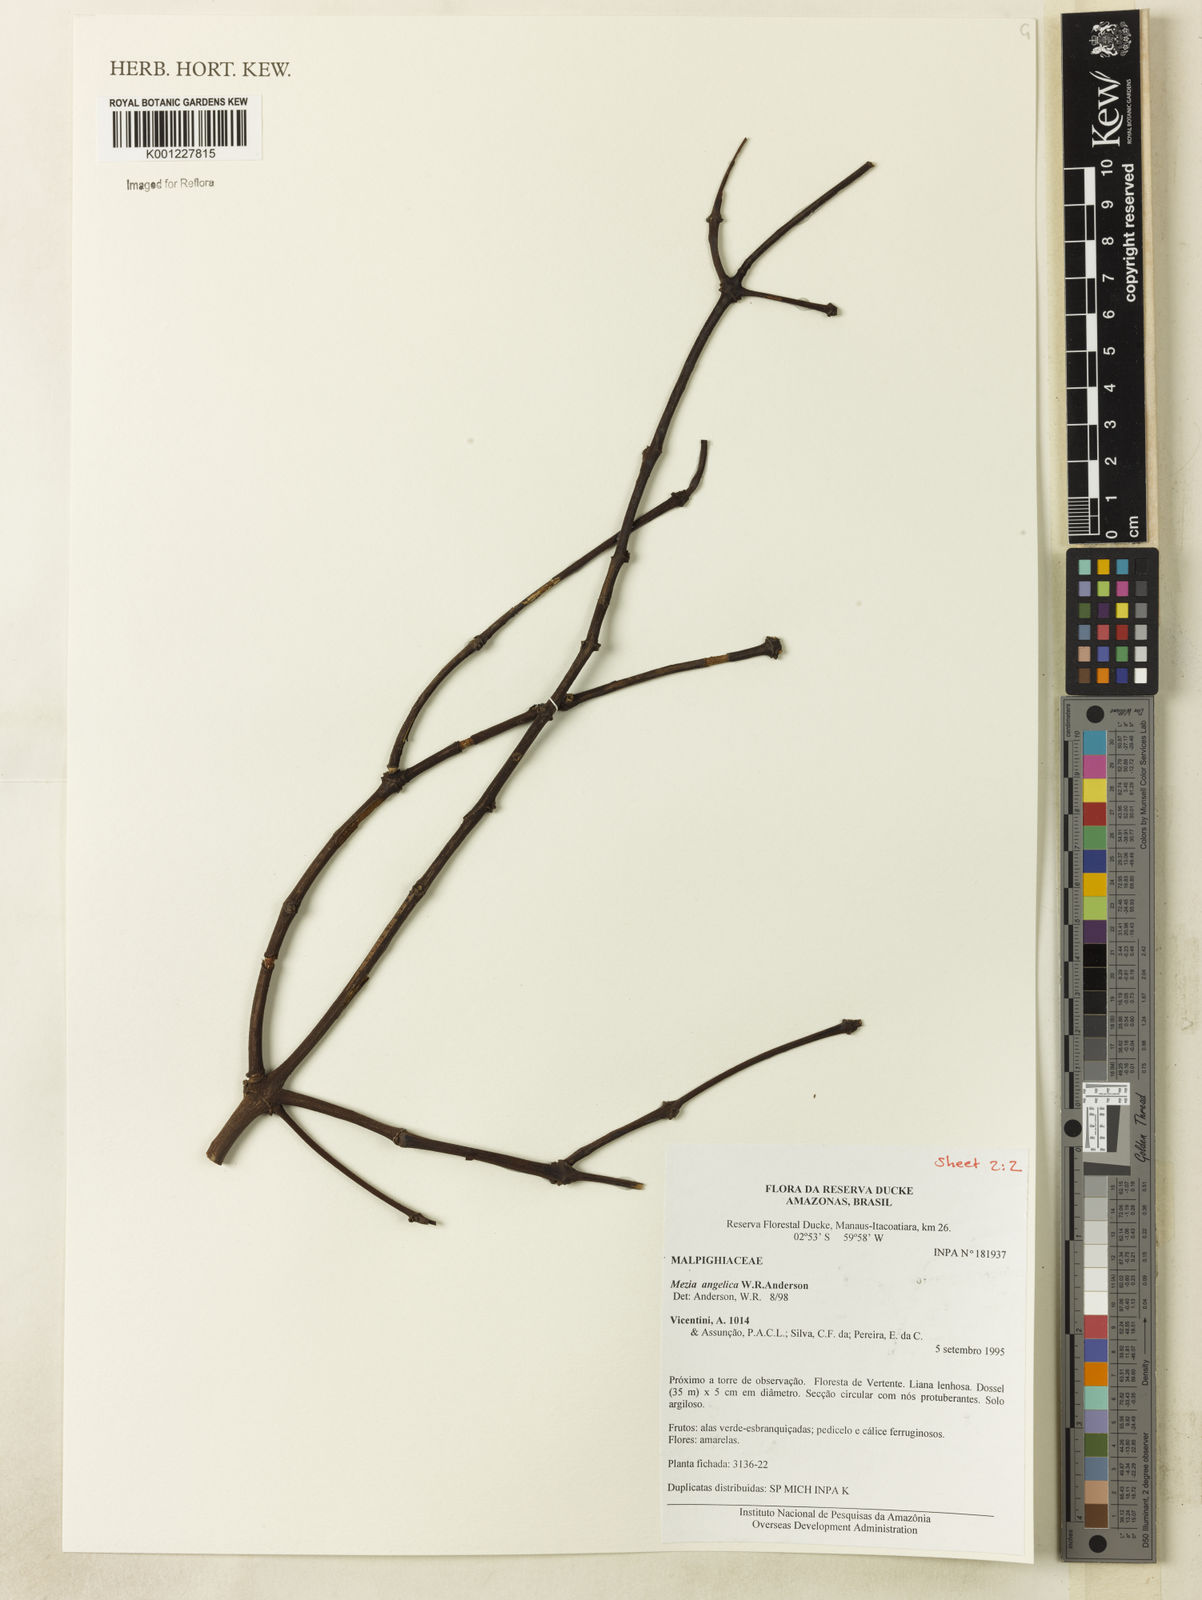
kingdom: Plantae
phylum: Tracheophyta
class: Magnoliopsida
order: Malpighiales
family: Malpighiaceae
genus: Mezia
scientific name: Mezia angelica
